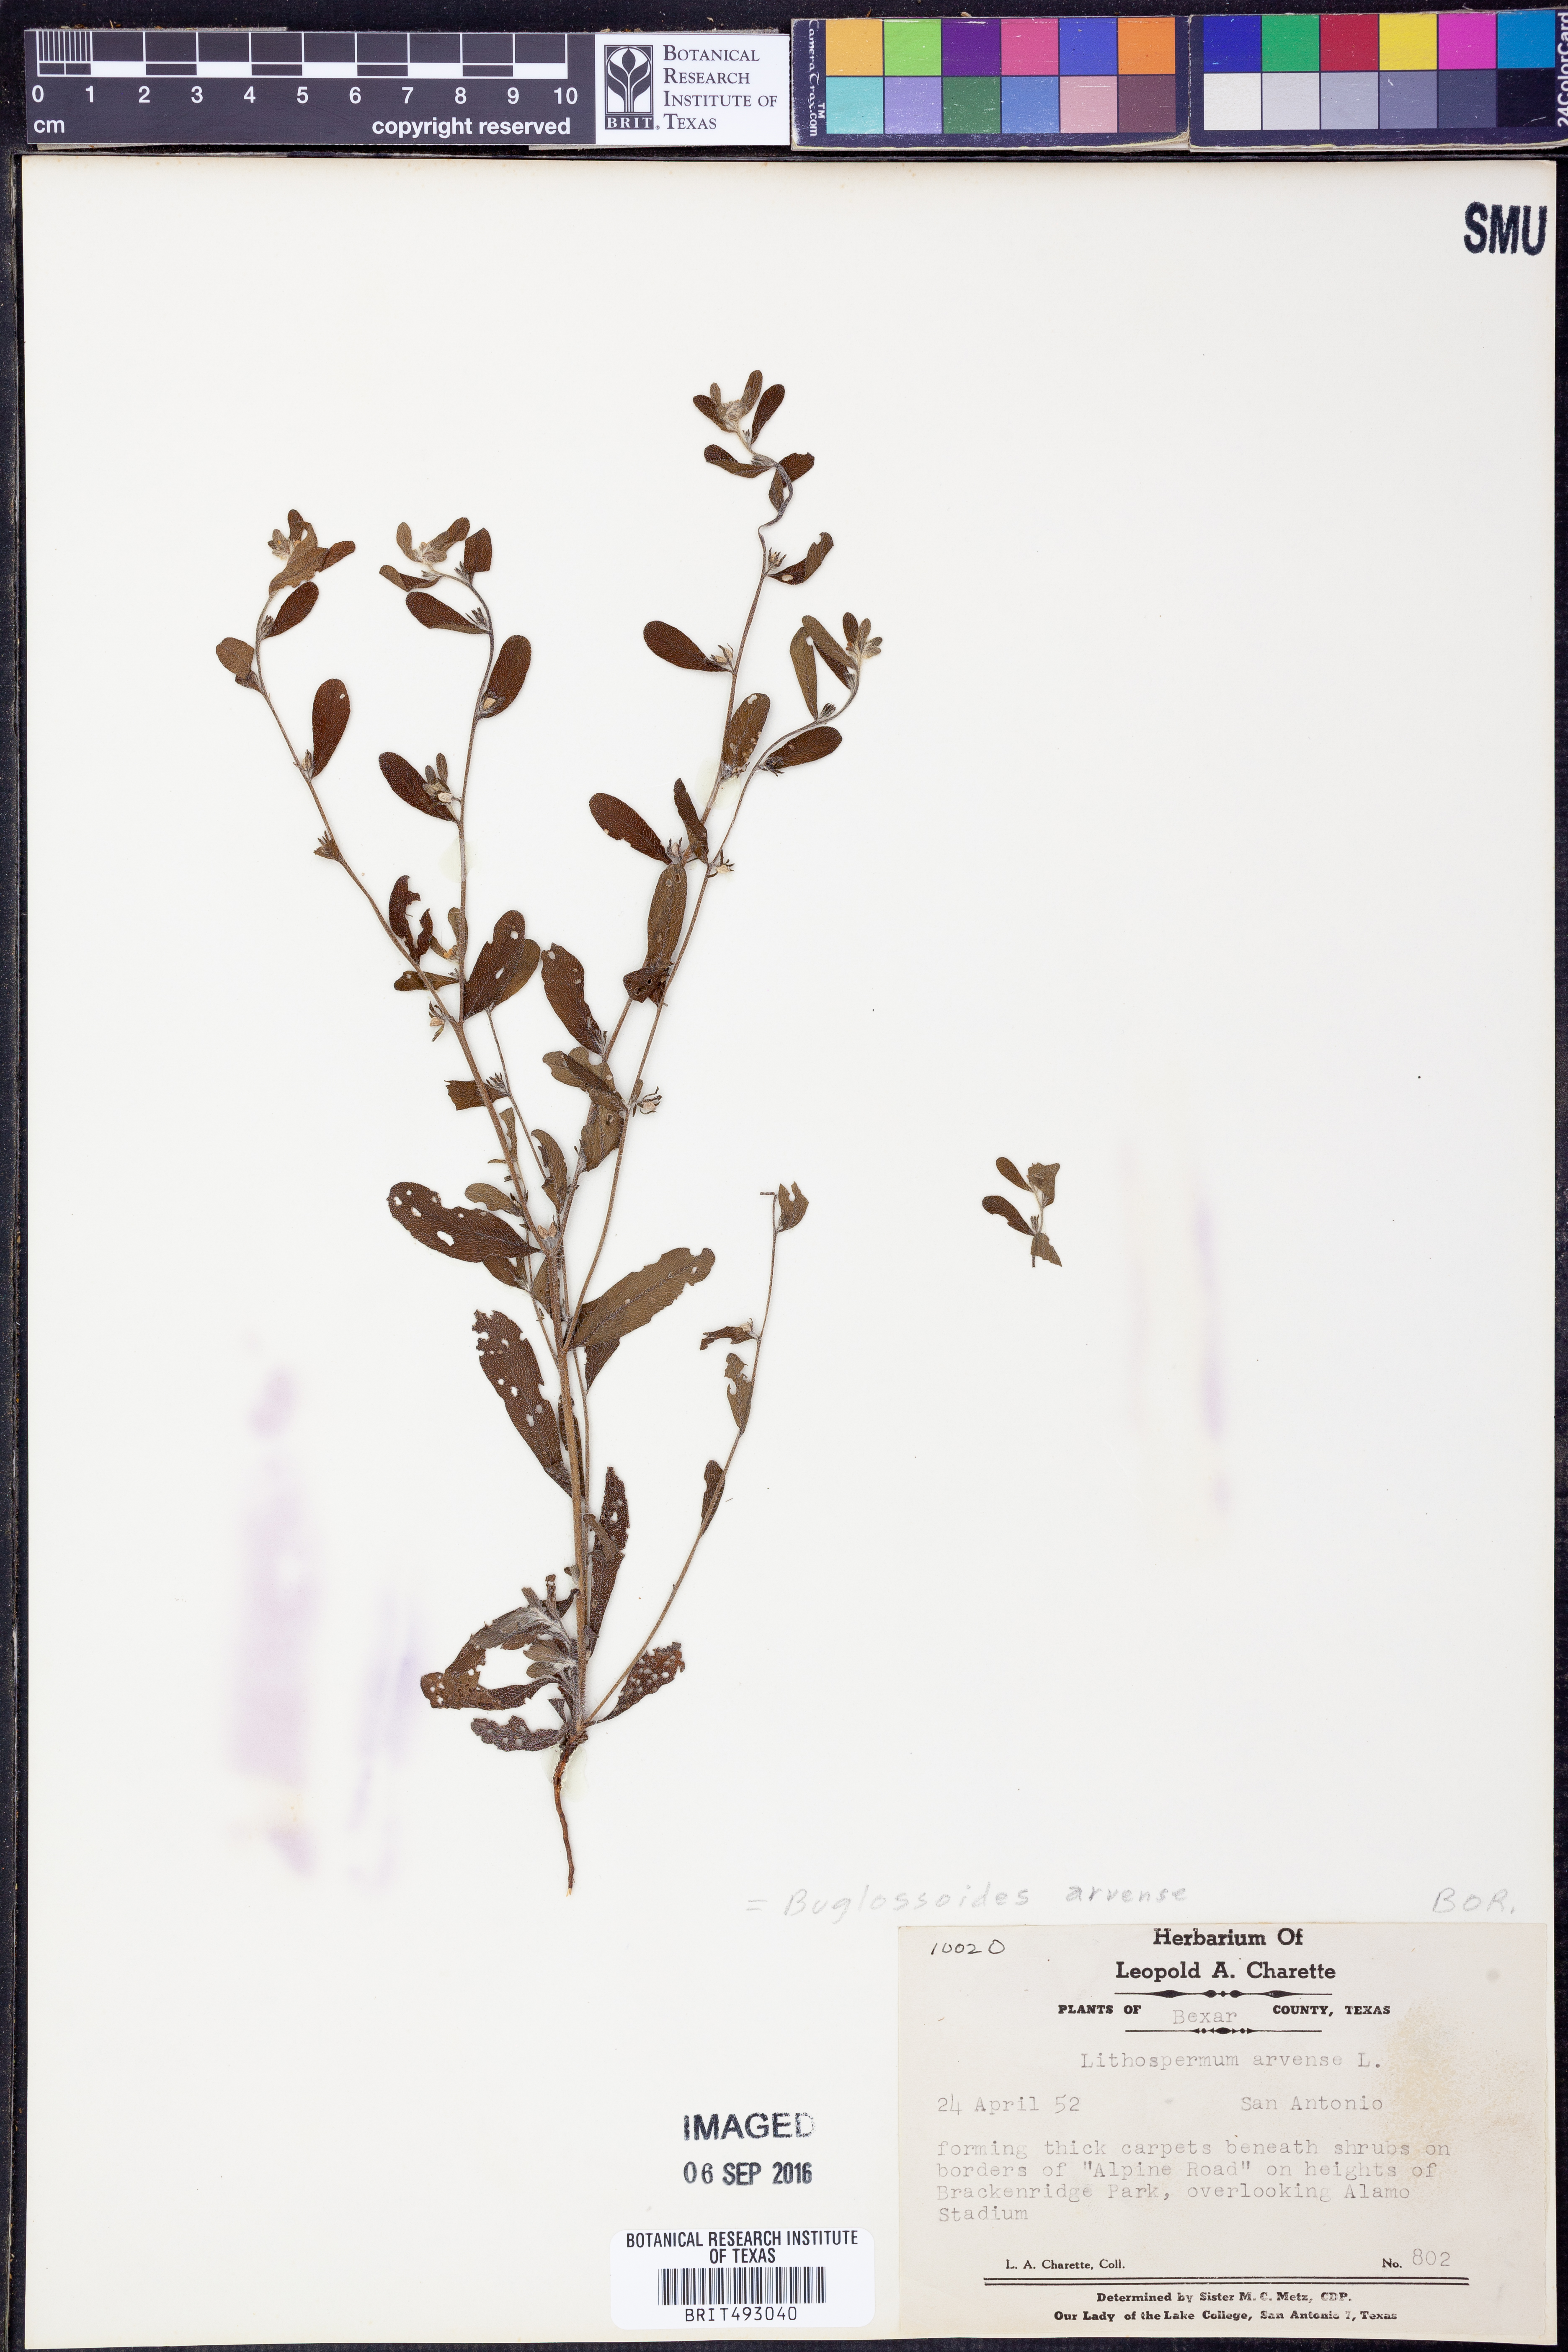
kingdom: Plantae
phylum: Tracheophyta
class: Magnoliopsida
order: Boraginales
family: Boraginaceae
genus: Buglossoides
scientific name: Buglossoides arvensis
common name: Corn gromwell
